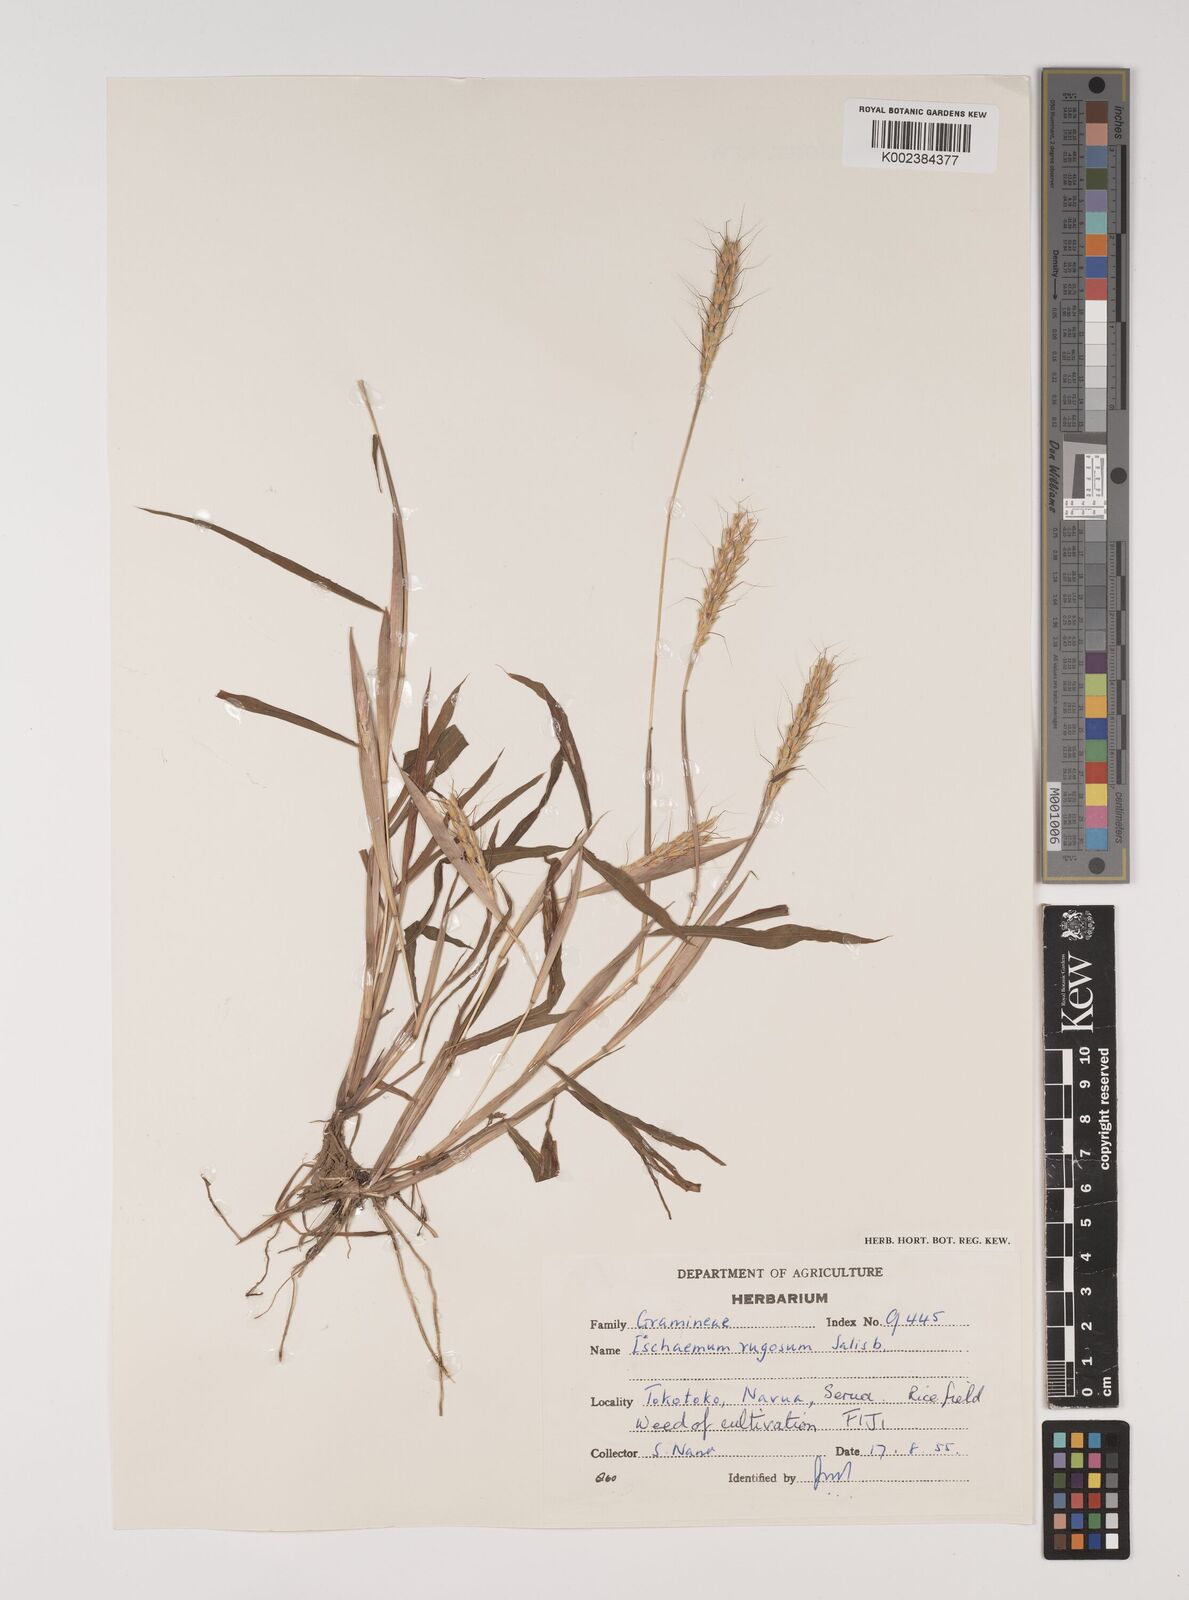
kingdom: Plantae
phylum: Tracheophyta
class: Liliopsida
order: Poales
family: Poaceae
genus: Ischaemum
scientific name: Ischaemum rugosum
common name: Saramatta grass
